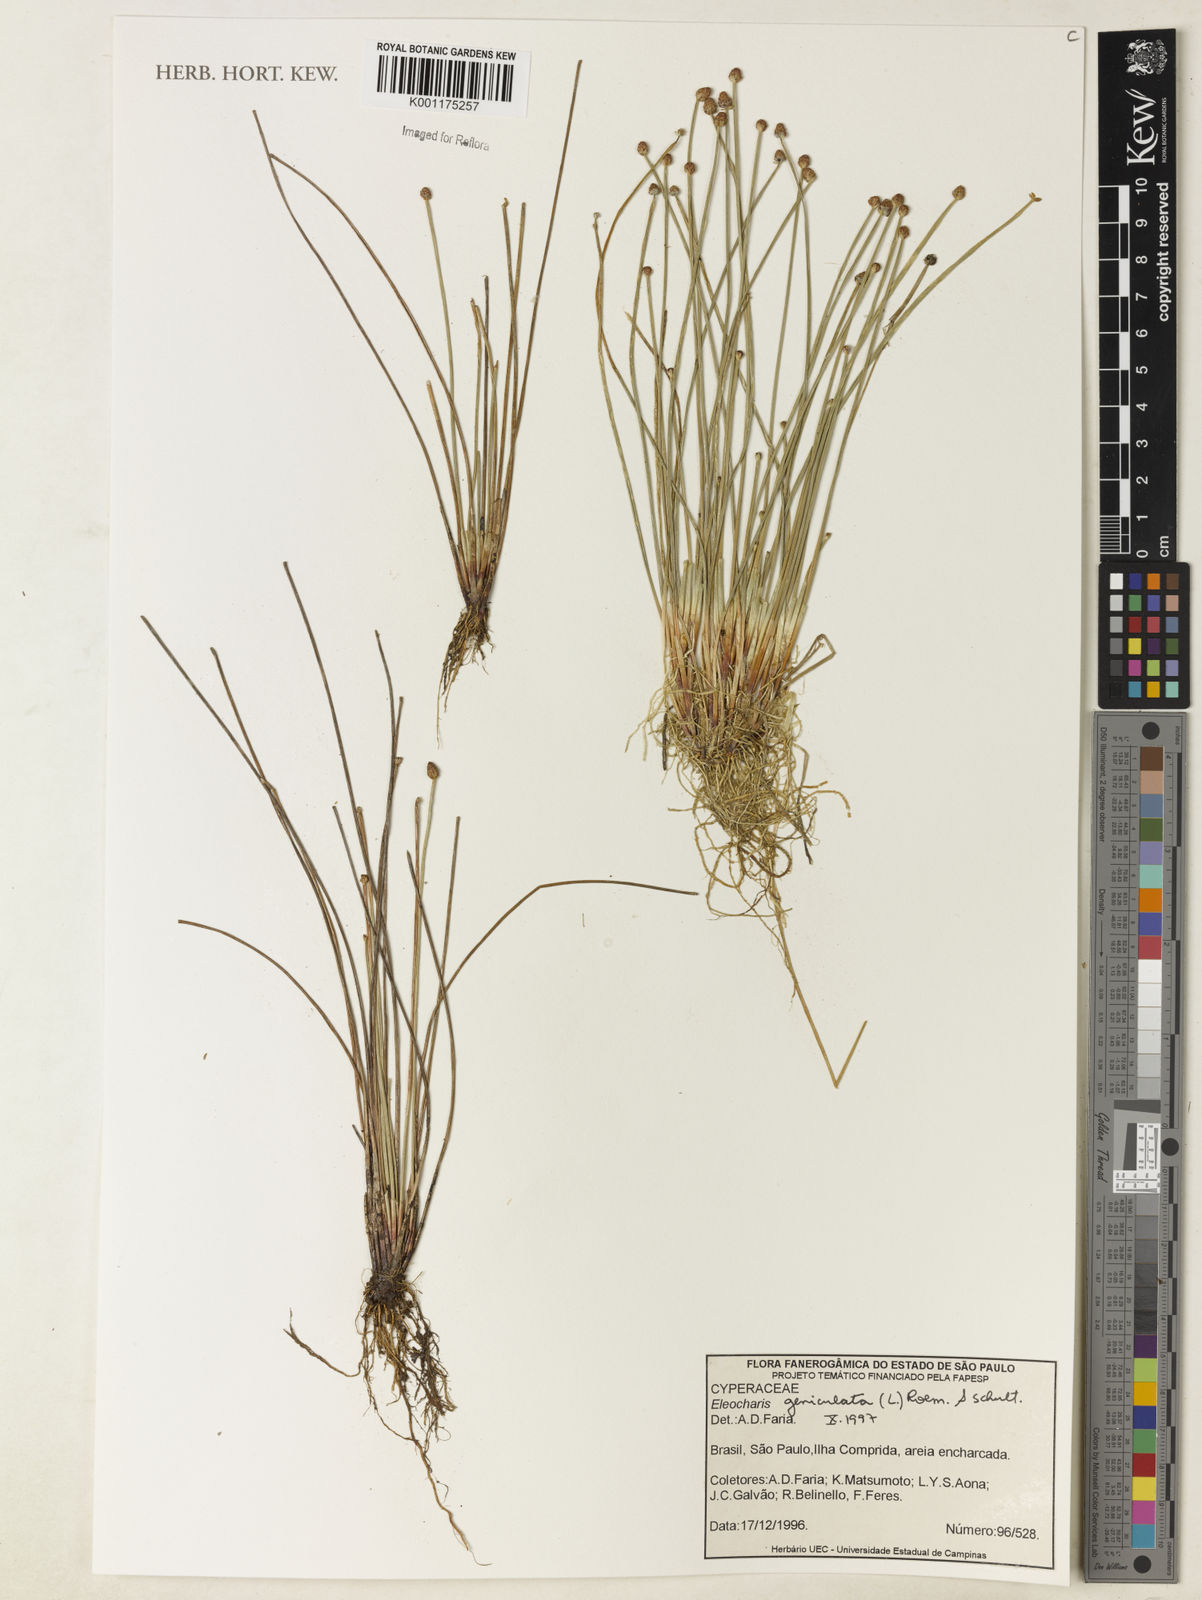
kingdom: Plantae
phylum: Tracheophyta
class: Liliopsida
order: Poales
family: Cyperaceae
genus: Eleocharis
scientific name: Eleocharis geniculata
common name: Canada spikesedge
